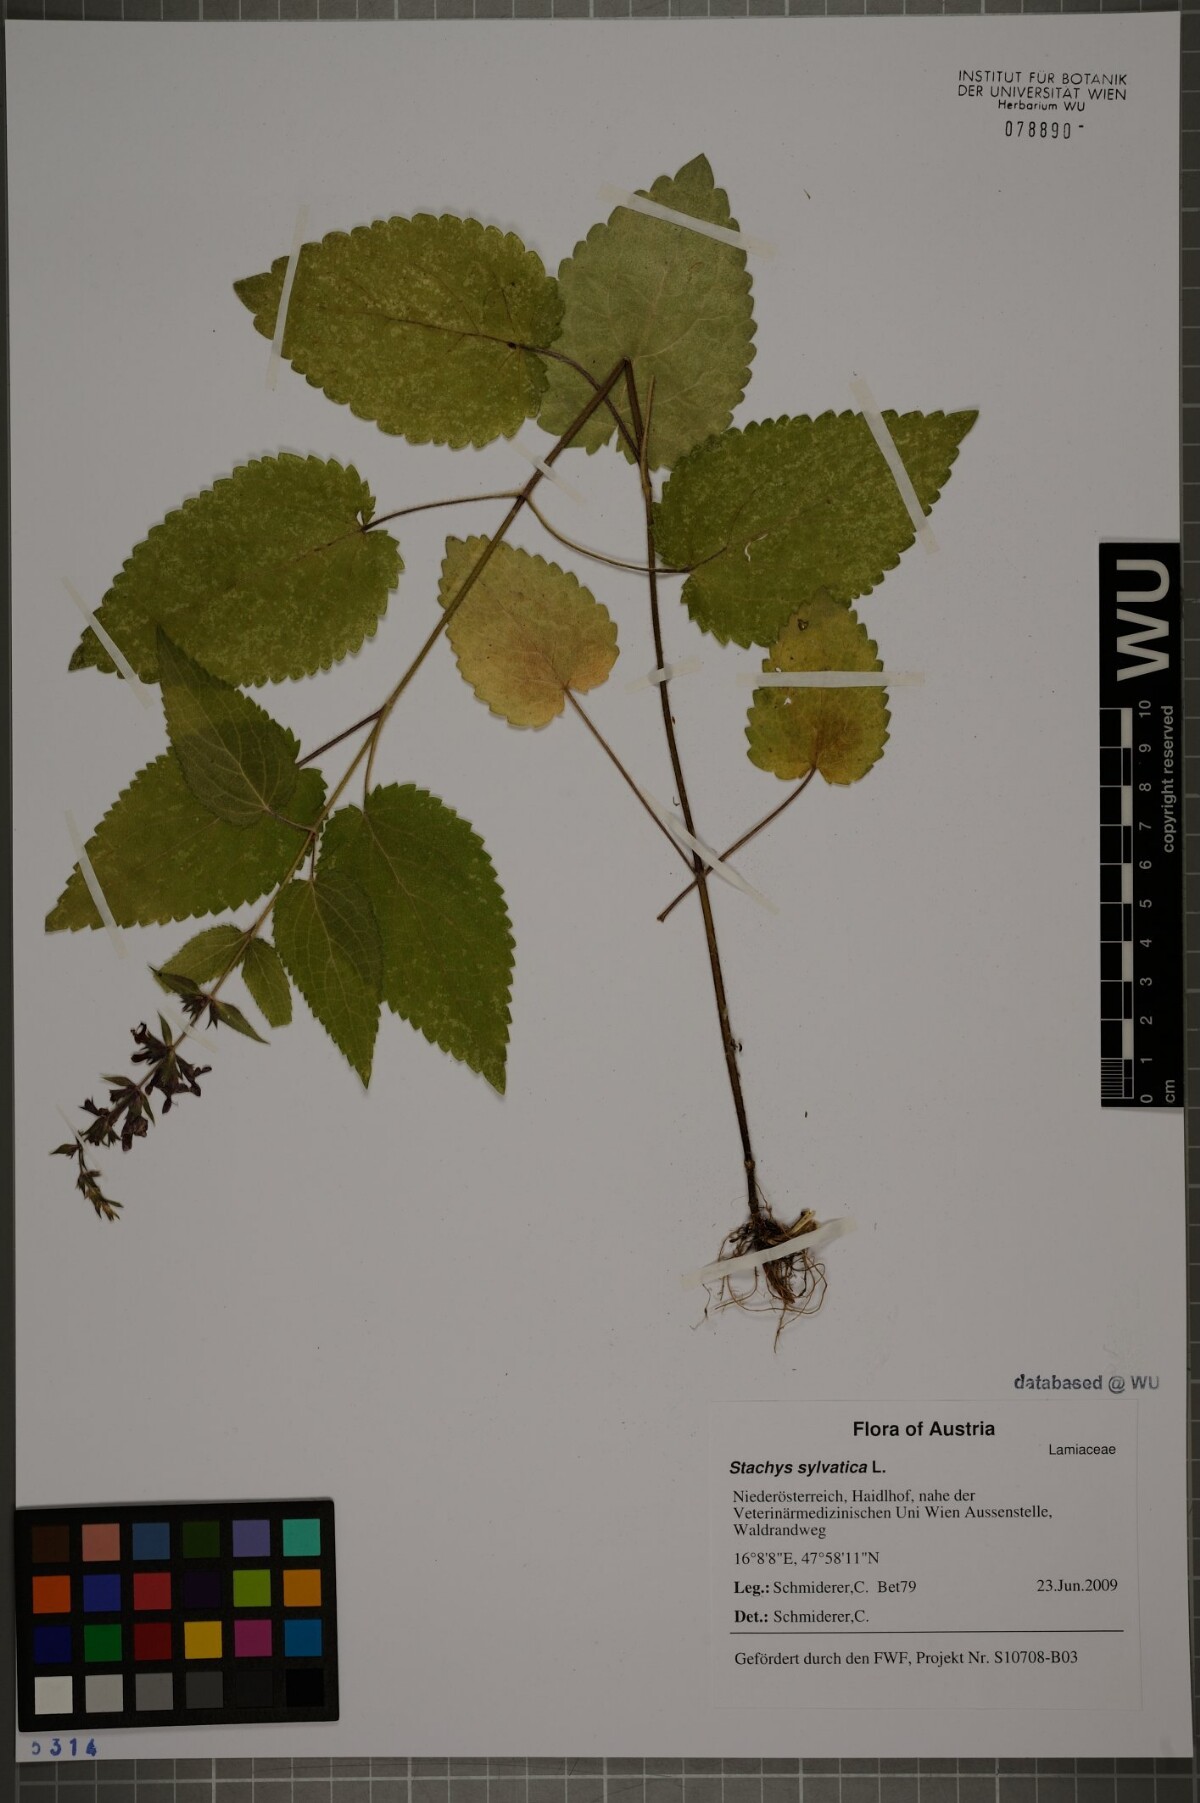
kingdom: Plantae
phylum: Tracheophyta
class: Magnoliopsida
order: Lamiales
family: Lamiaceae
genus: Stachys
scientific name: Stachys sylvatica
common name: Hedge woundwort
